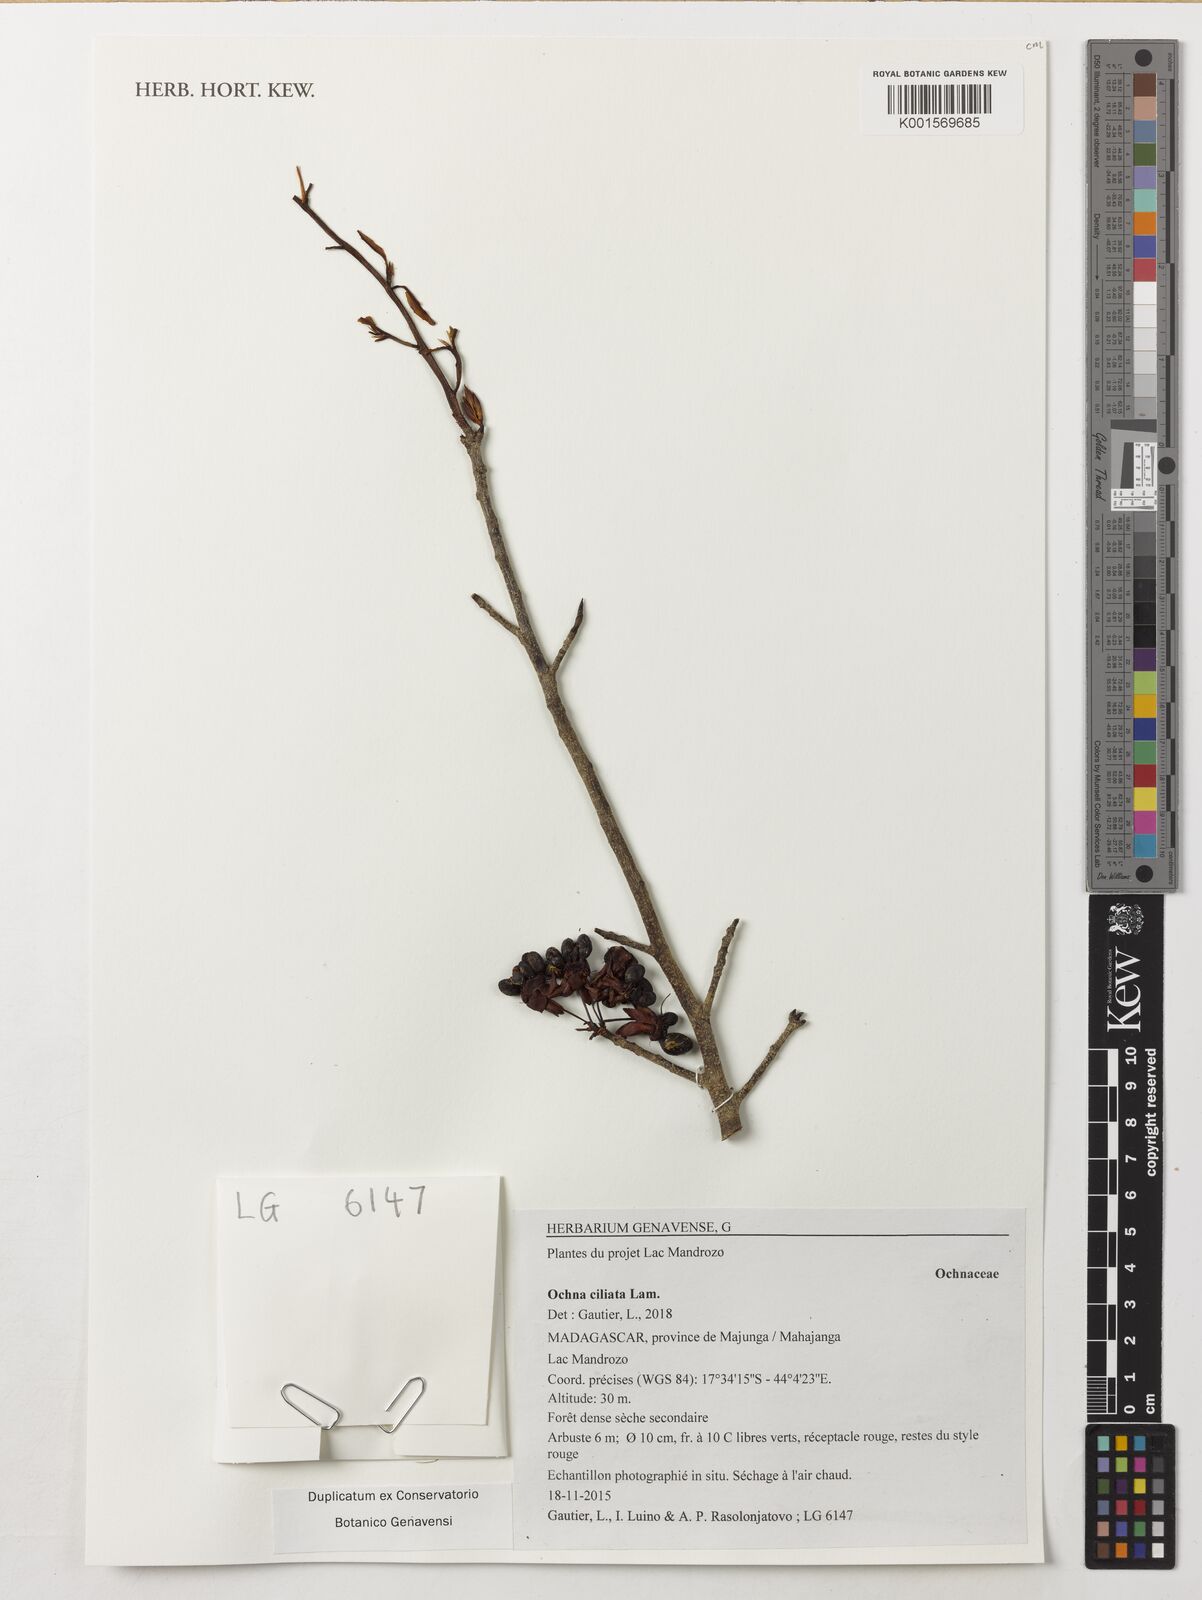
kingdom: Plantae
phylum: Tracheophyta
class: Magnoliopsida
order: Malpighiales
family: Ochnaceae
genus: Ochna
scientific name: Ochna ciliata
